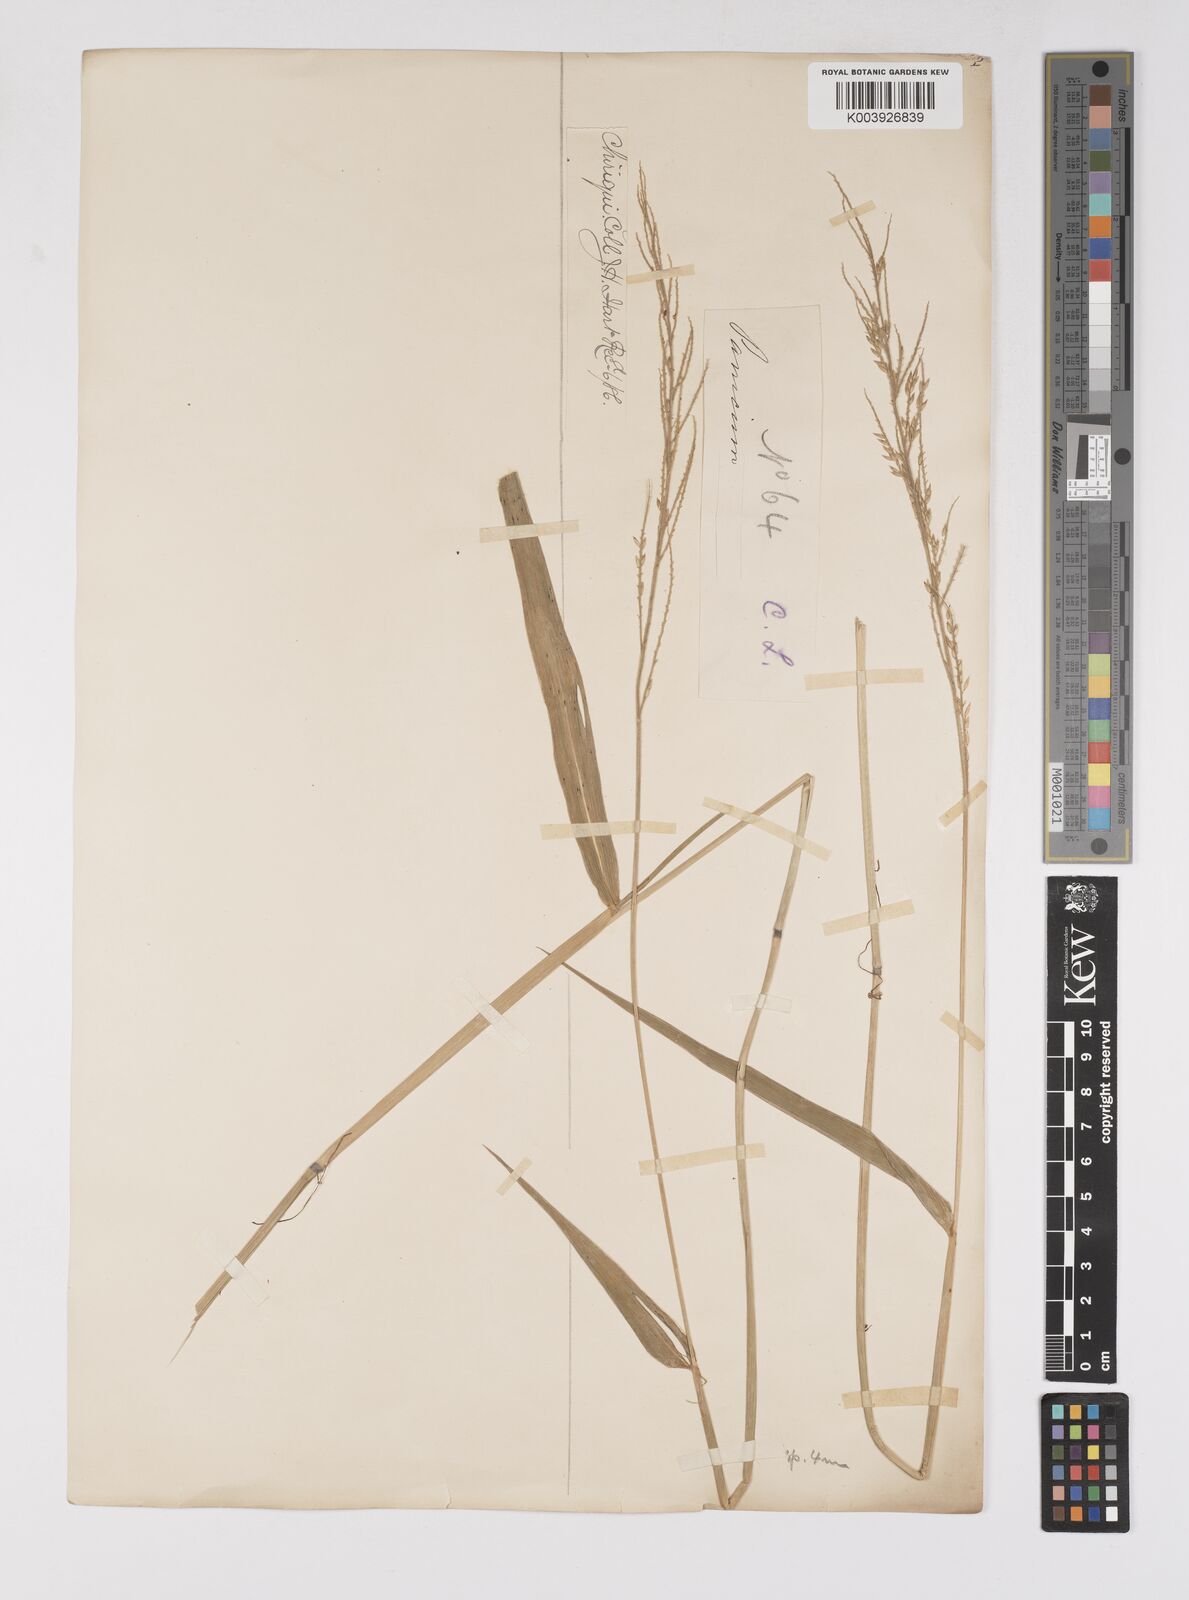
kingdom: Plantae
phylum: Tracheophyta
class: Liliopsida
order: Poales
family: Poaceae
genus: Eriochloa
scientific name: Eriochloa punctata
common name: Louisiana cupgrass
